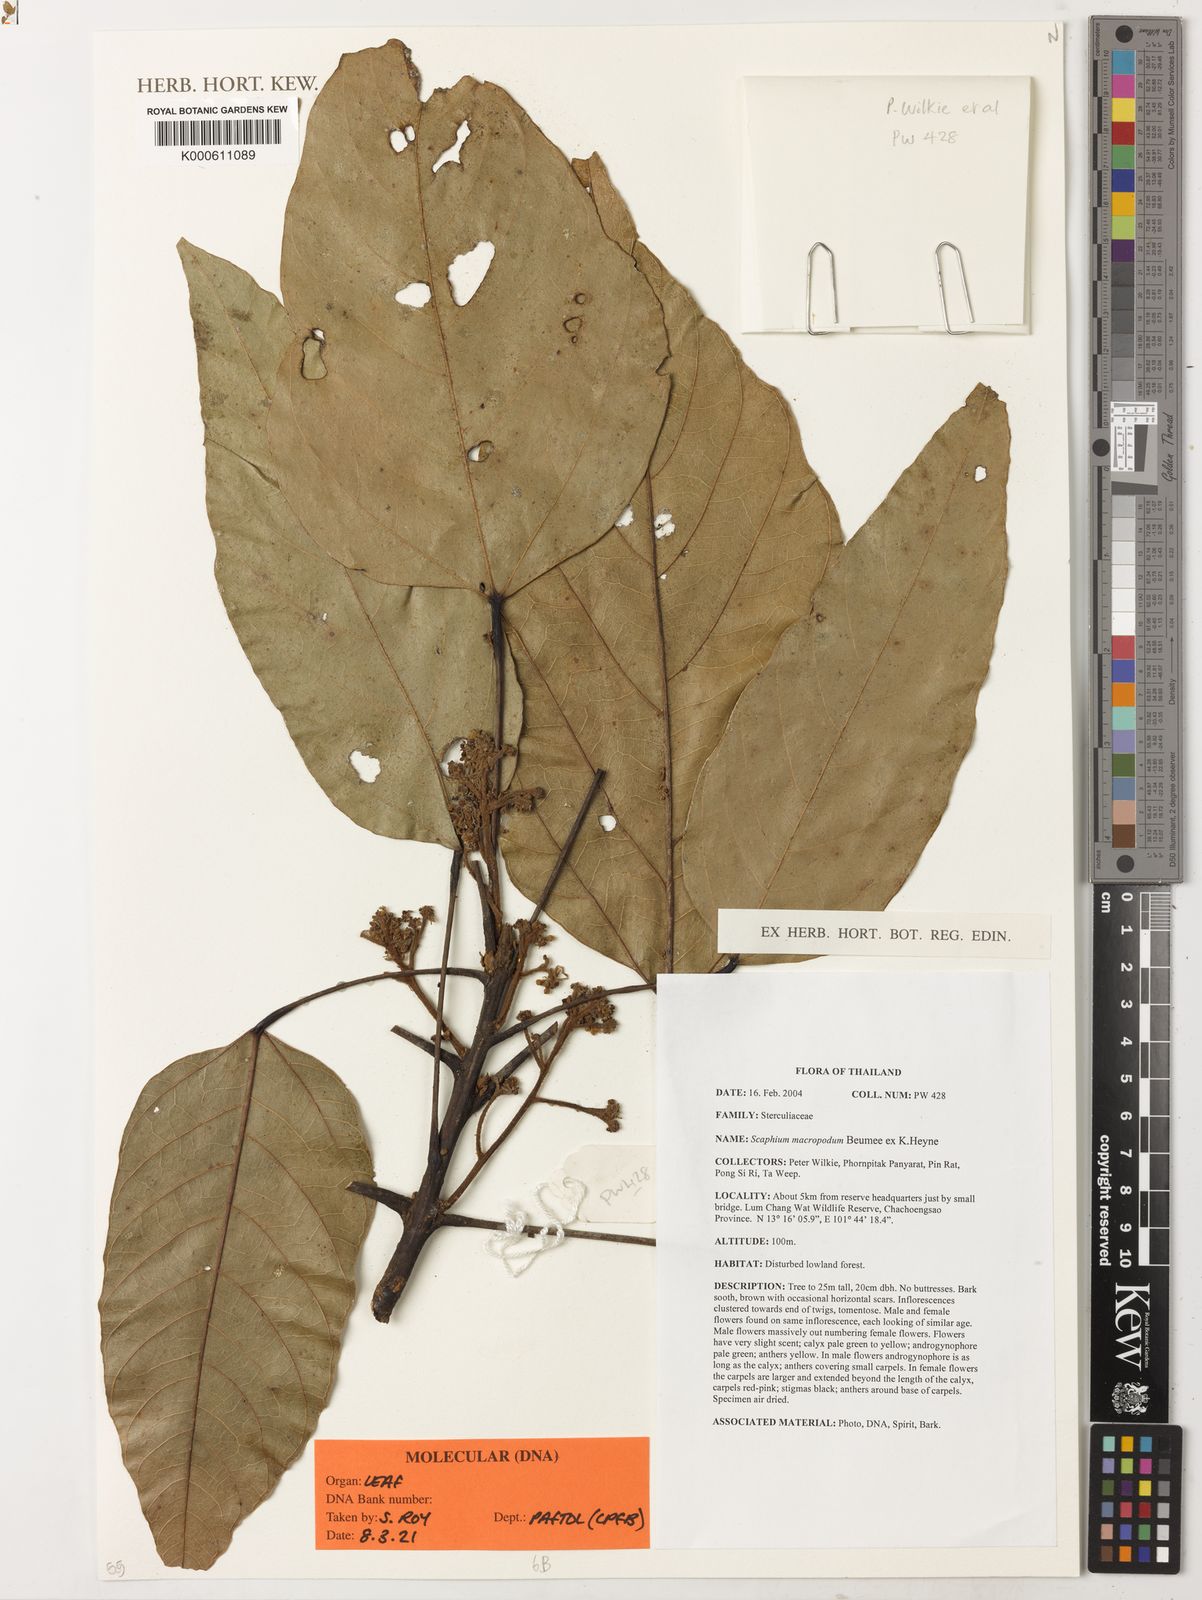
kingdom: Plantae
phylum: Tracheophyta
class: Magnoliopsida
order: Malvales
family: Malvaceae
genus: Scaphium
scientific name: Scaphium macropodum
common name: Malva nut
